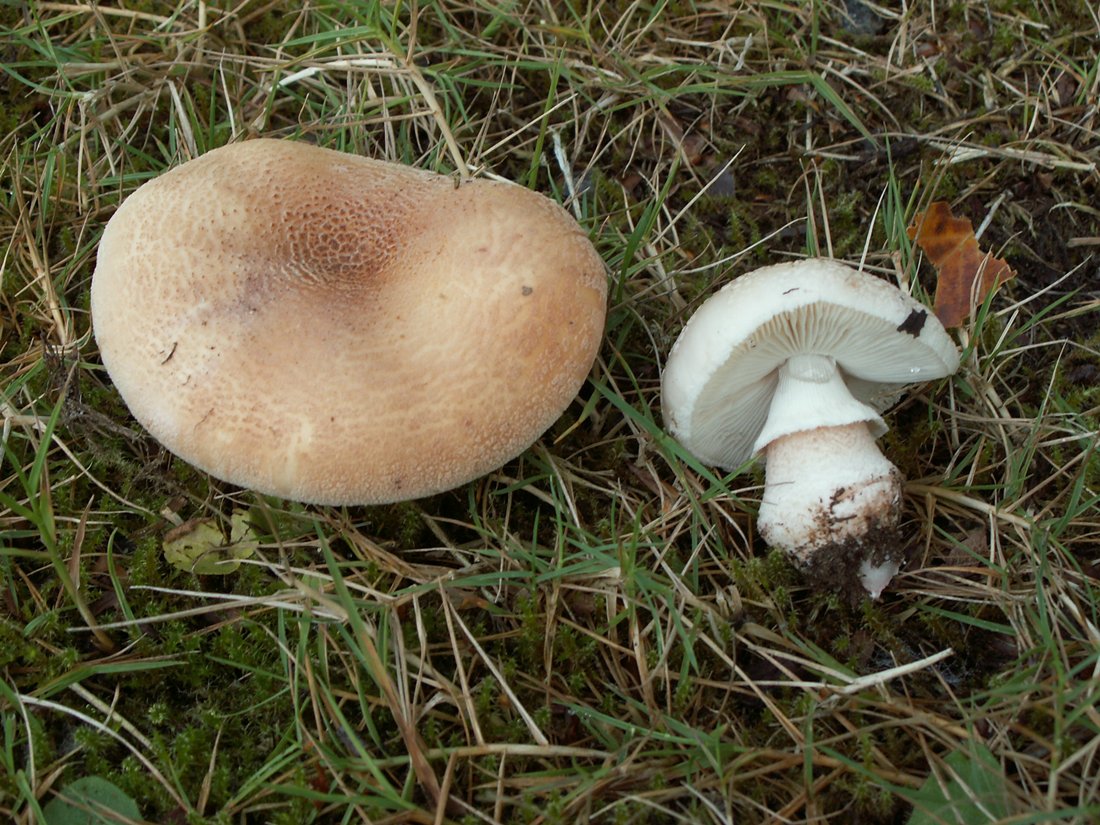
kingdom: Fungi
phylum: Basidiomycota
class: Agaricomycetes
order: Agaricales
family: Amanitaceae
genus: Amanita
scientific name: Amanita rubescens
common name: rødmende fluesvamp
